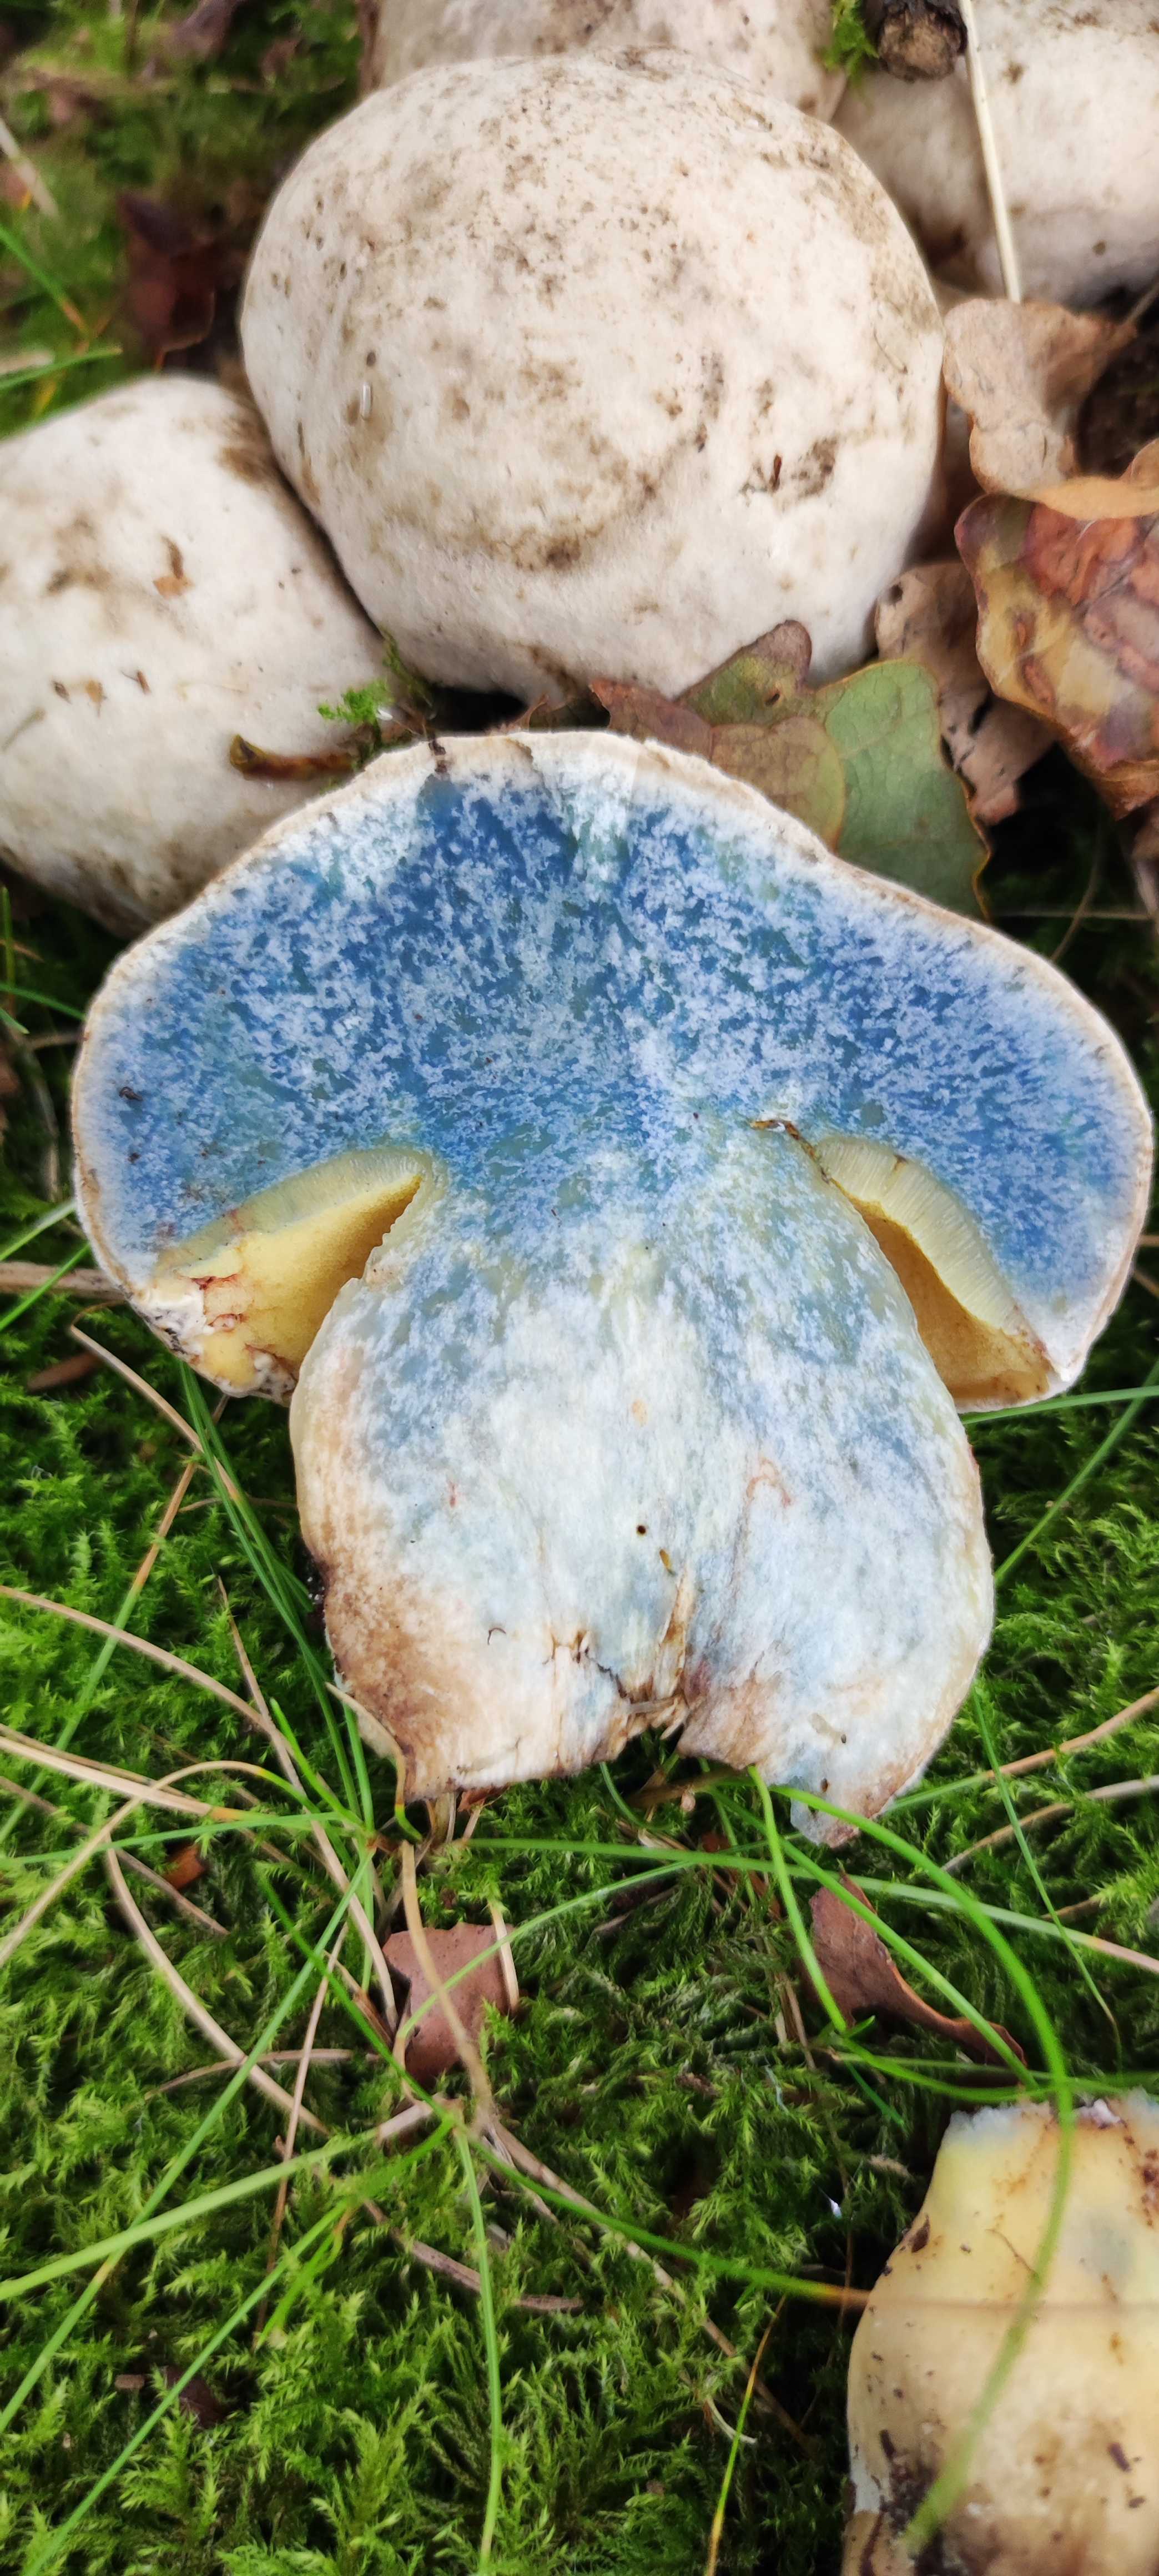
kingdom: Fungi
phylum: Basidiomycota
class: Agaricomycetes
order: Boletales
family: Boletaceae
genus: Caloboletus
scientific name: Caloboletus radicans
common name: rod-rørhat
